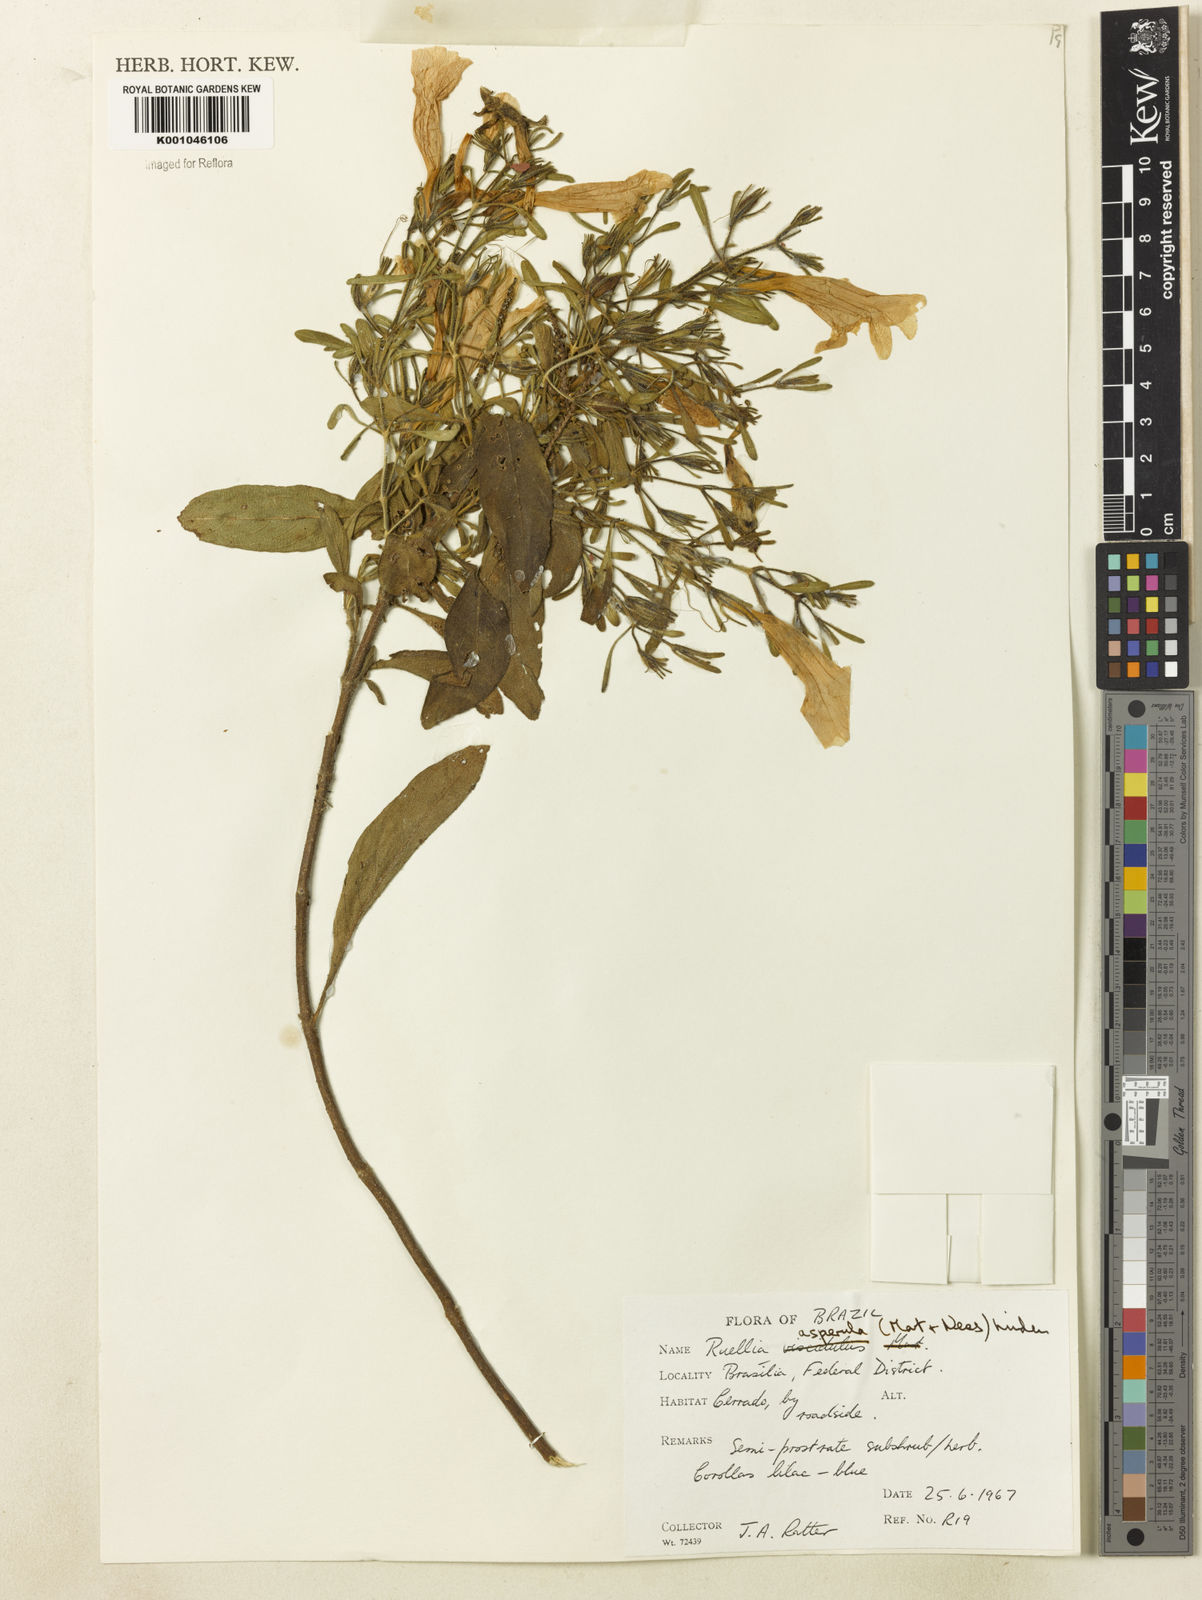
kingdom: Plantae
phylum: Tracheophyta
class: Magnoliopsida
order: Lamiales
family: Acanthaceae
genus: Ruellia
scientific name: Ruellia
